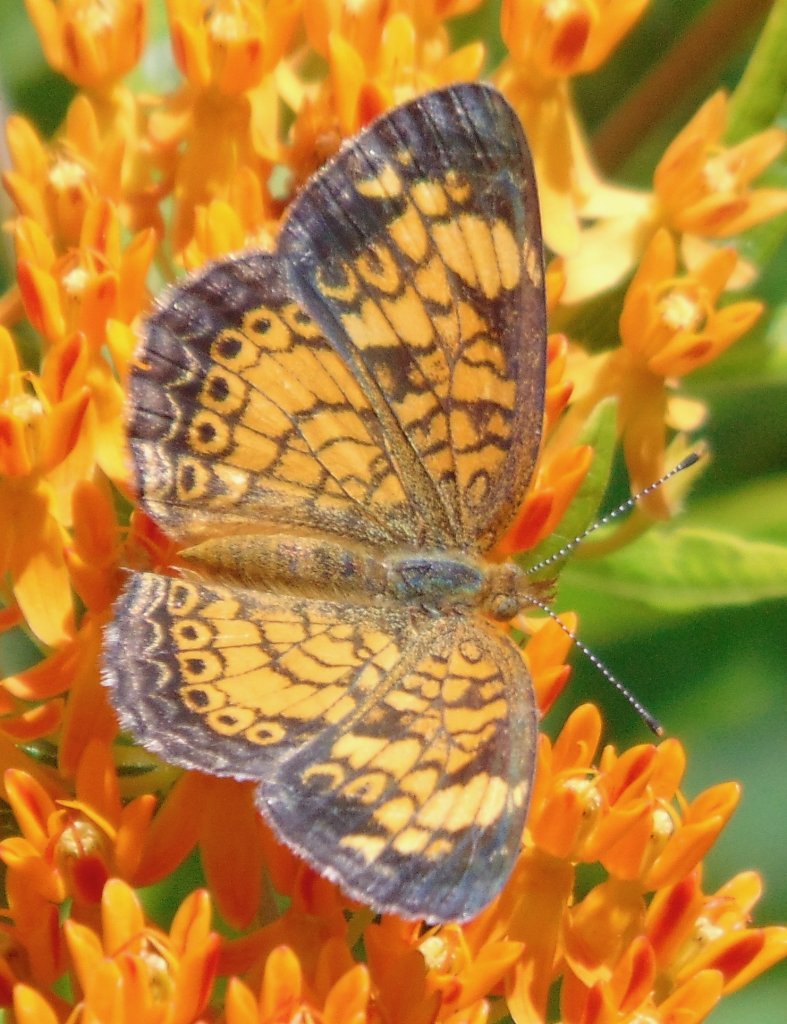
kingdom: Animalia
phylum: Arthropoda
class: Insecta
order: Lepidoptera
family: Nymphalidae
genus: Phyciodes
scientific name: Phyciodes tharos
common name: Pearl Crescent
